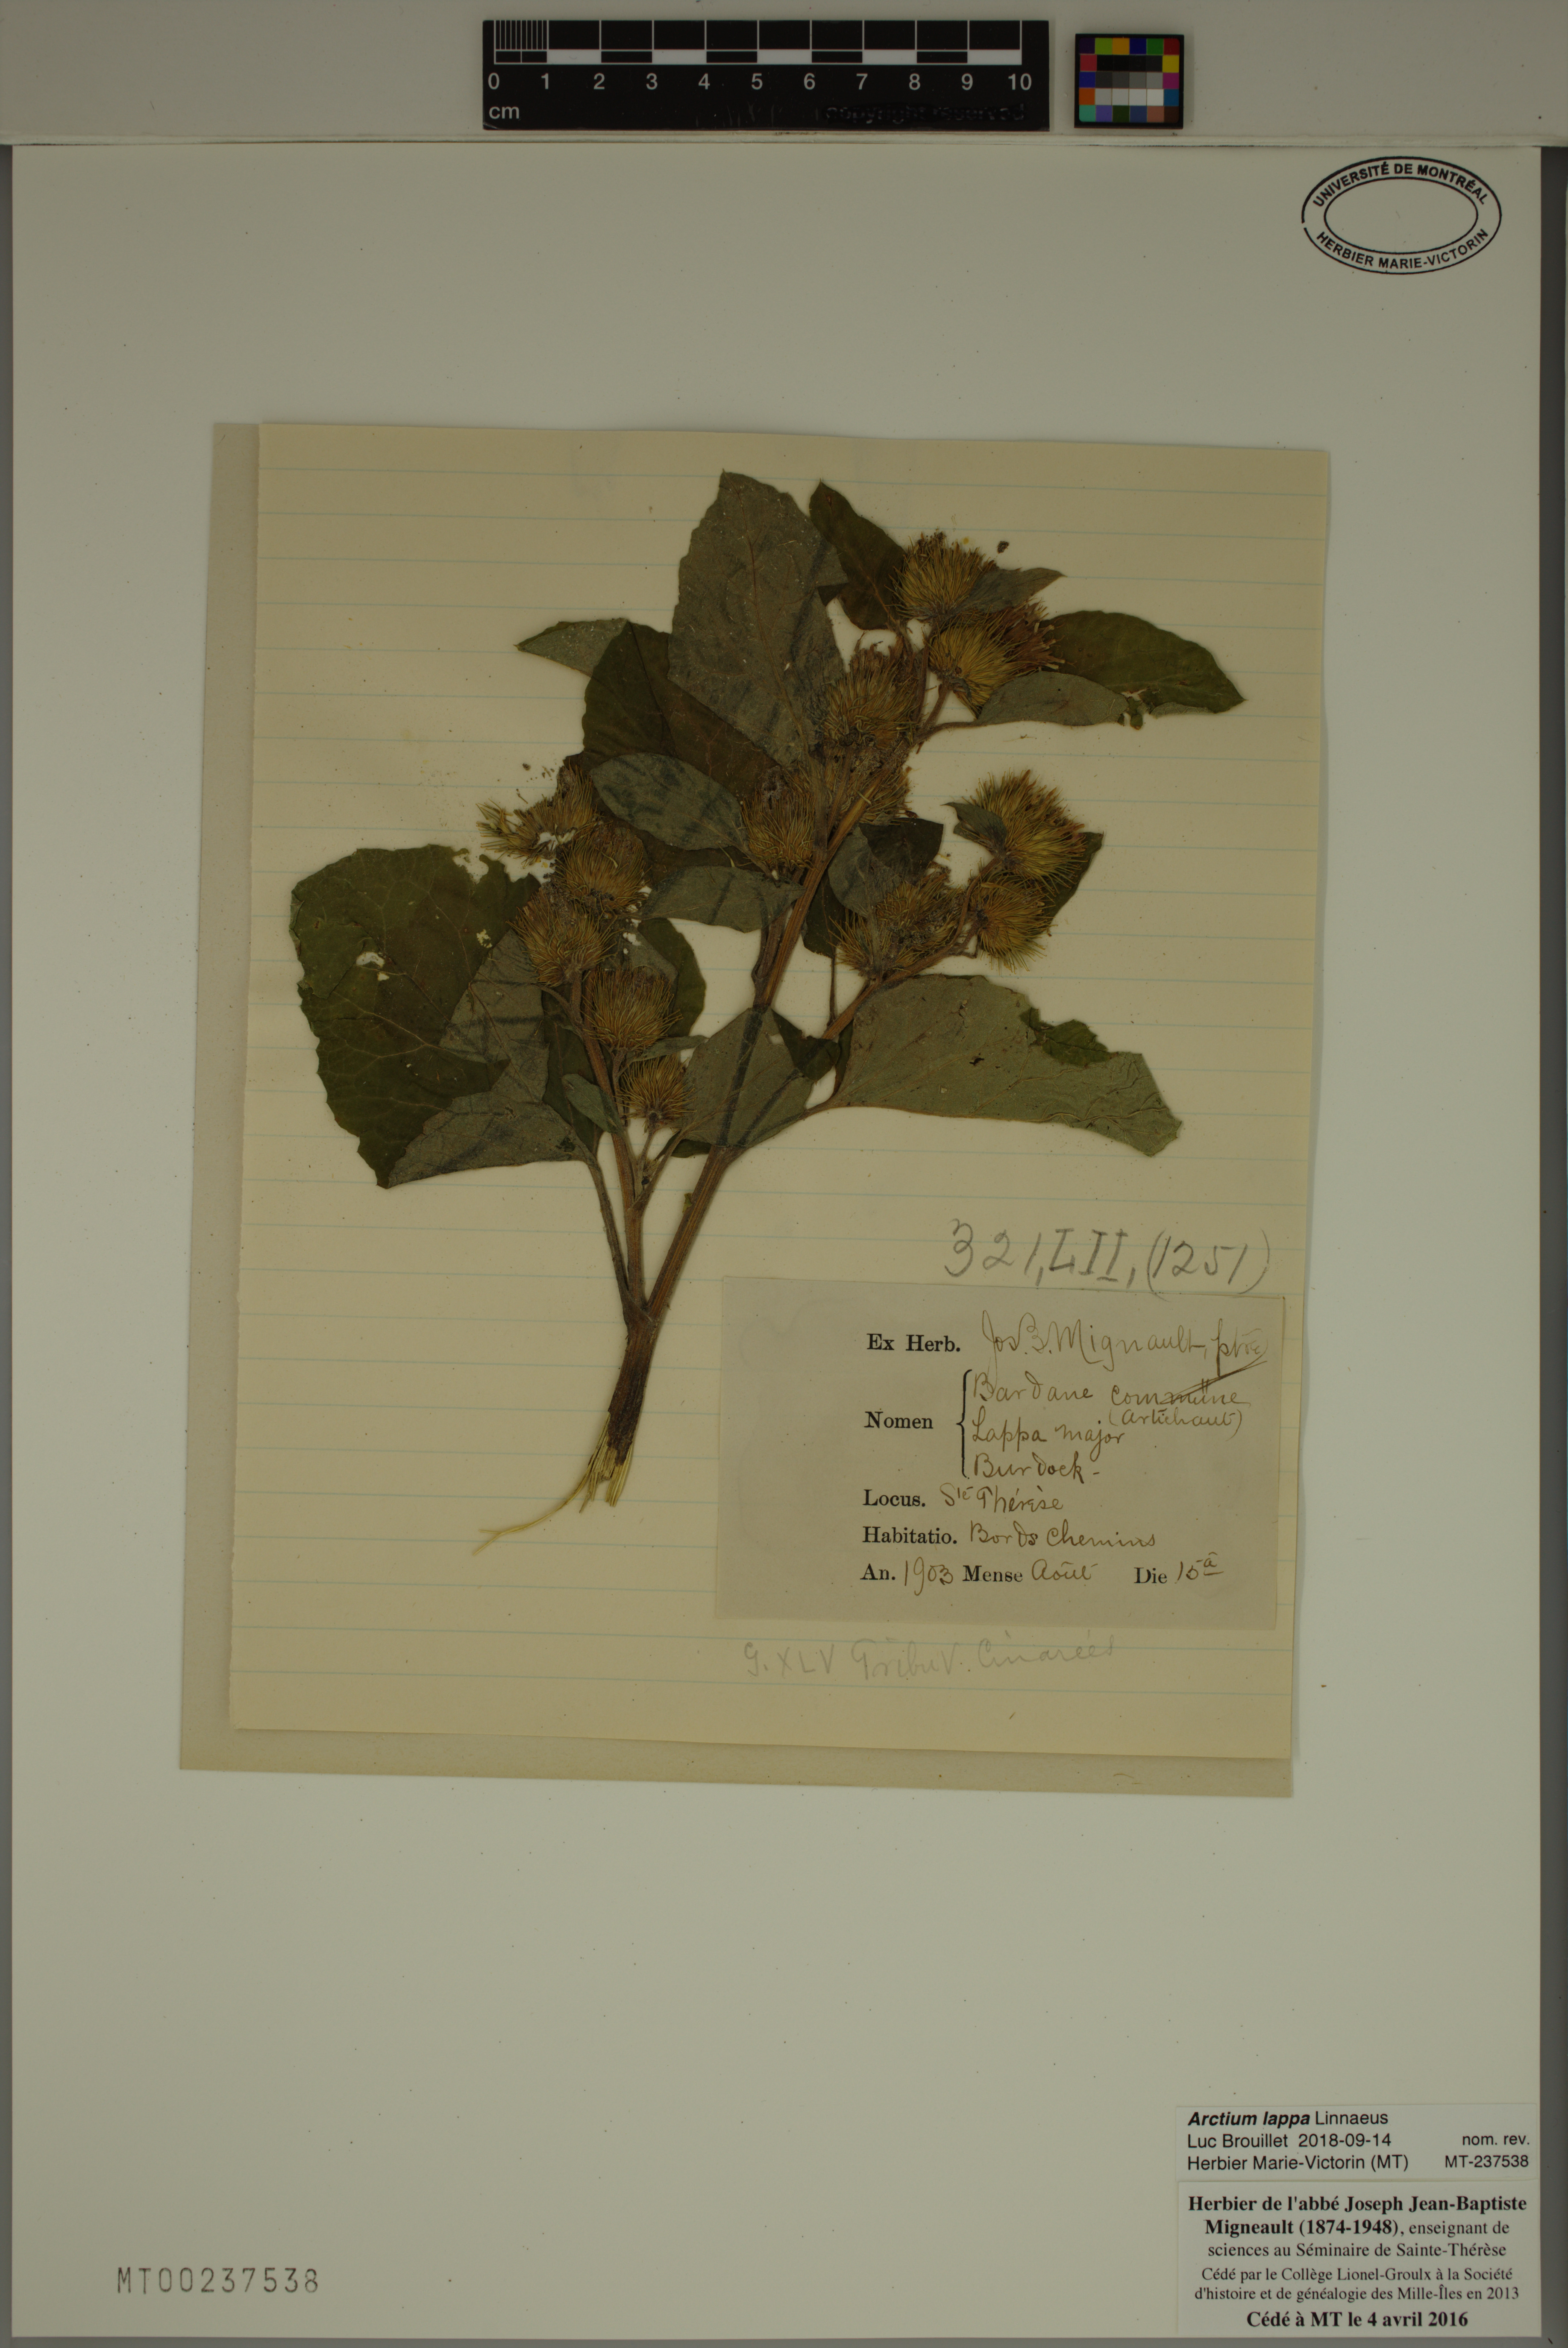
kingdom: Plantae
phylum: Tracheophyta
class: Magnoliopsida
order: Asterales
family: Asteraceae
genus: Arctium
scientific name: Arctium lappa
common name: Greater burdock
